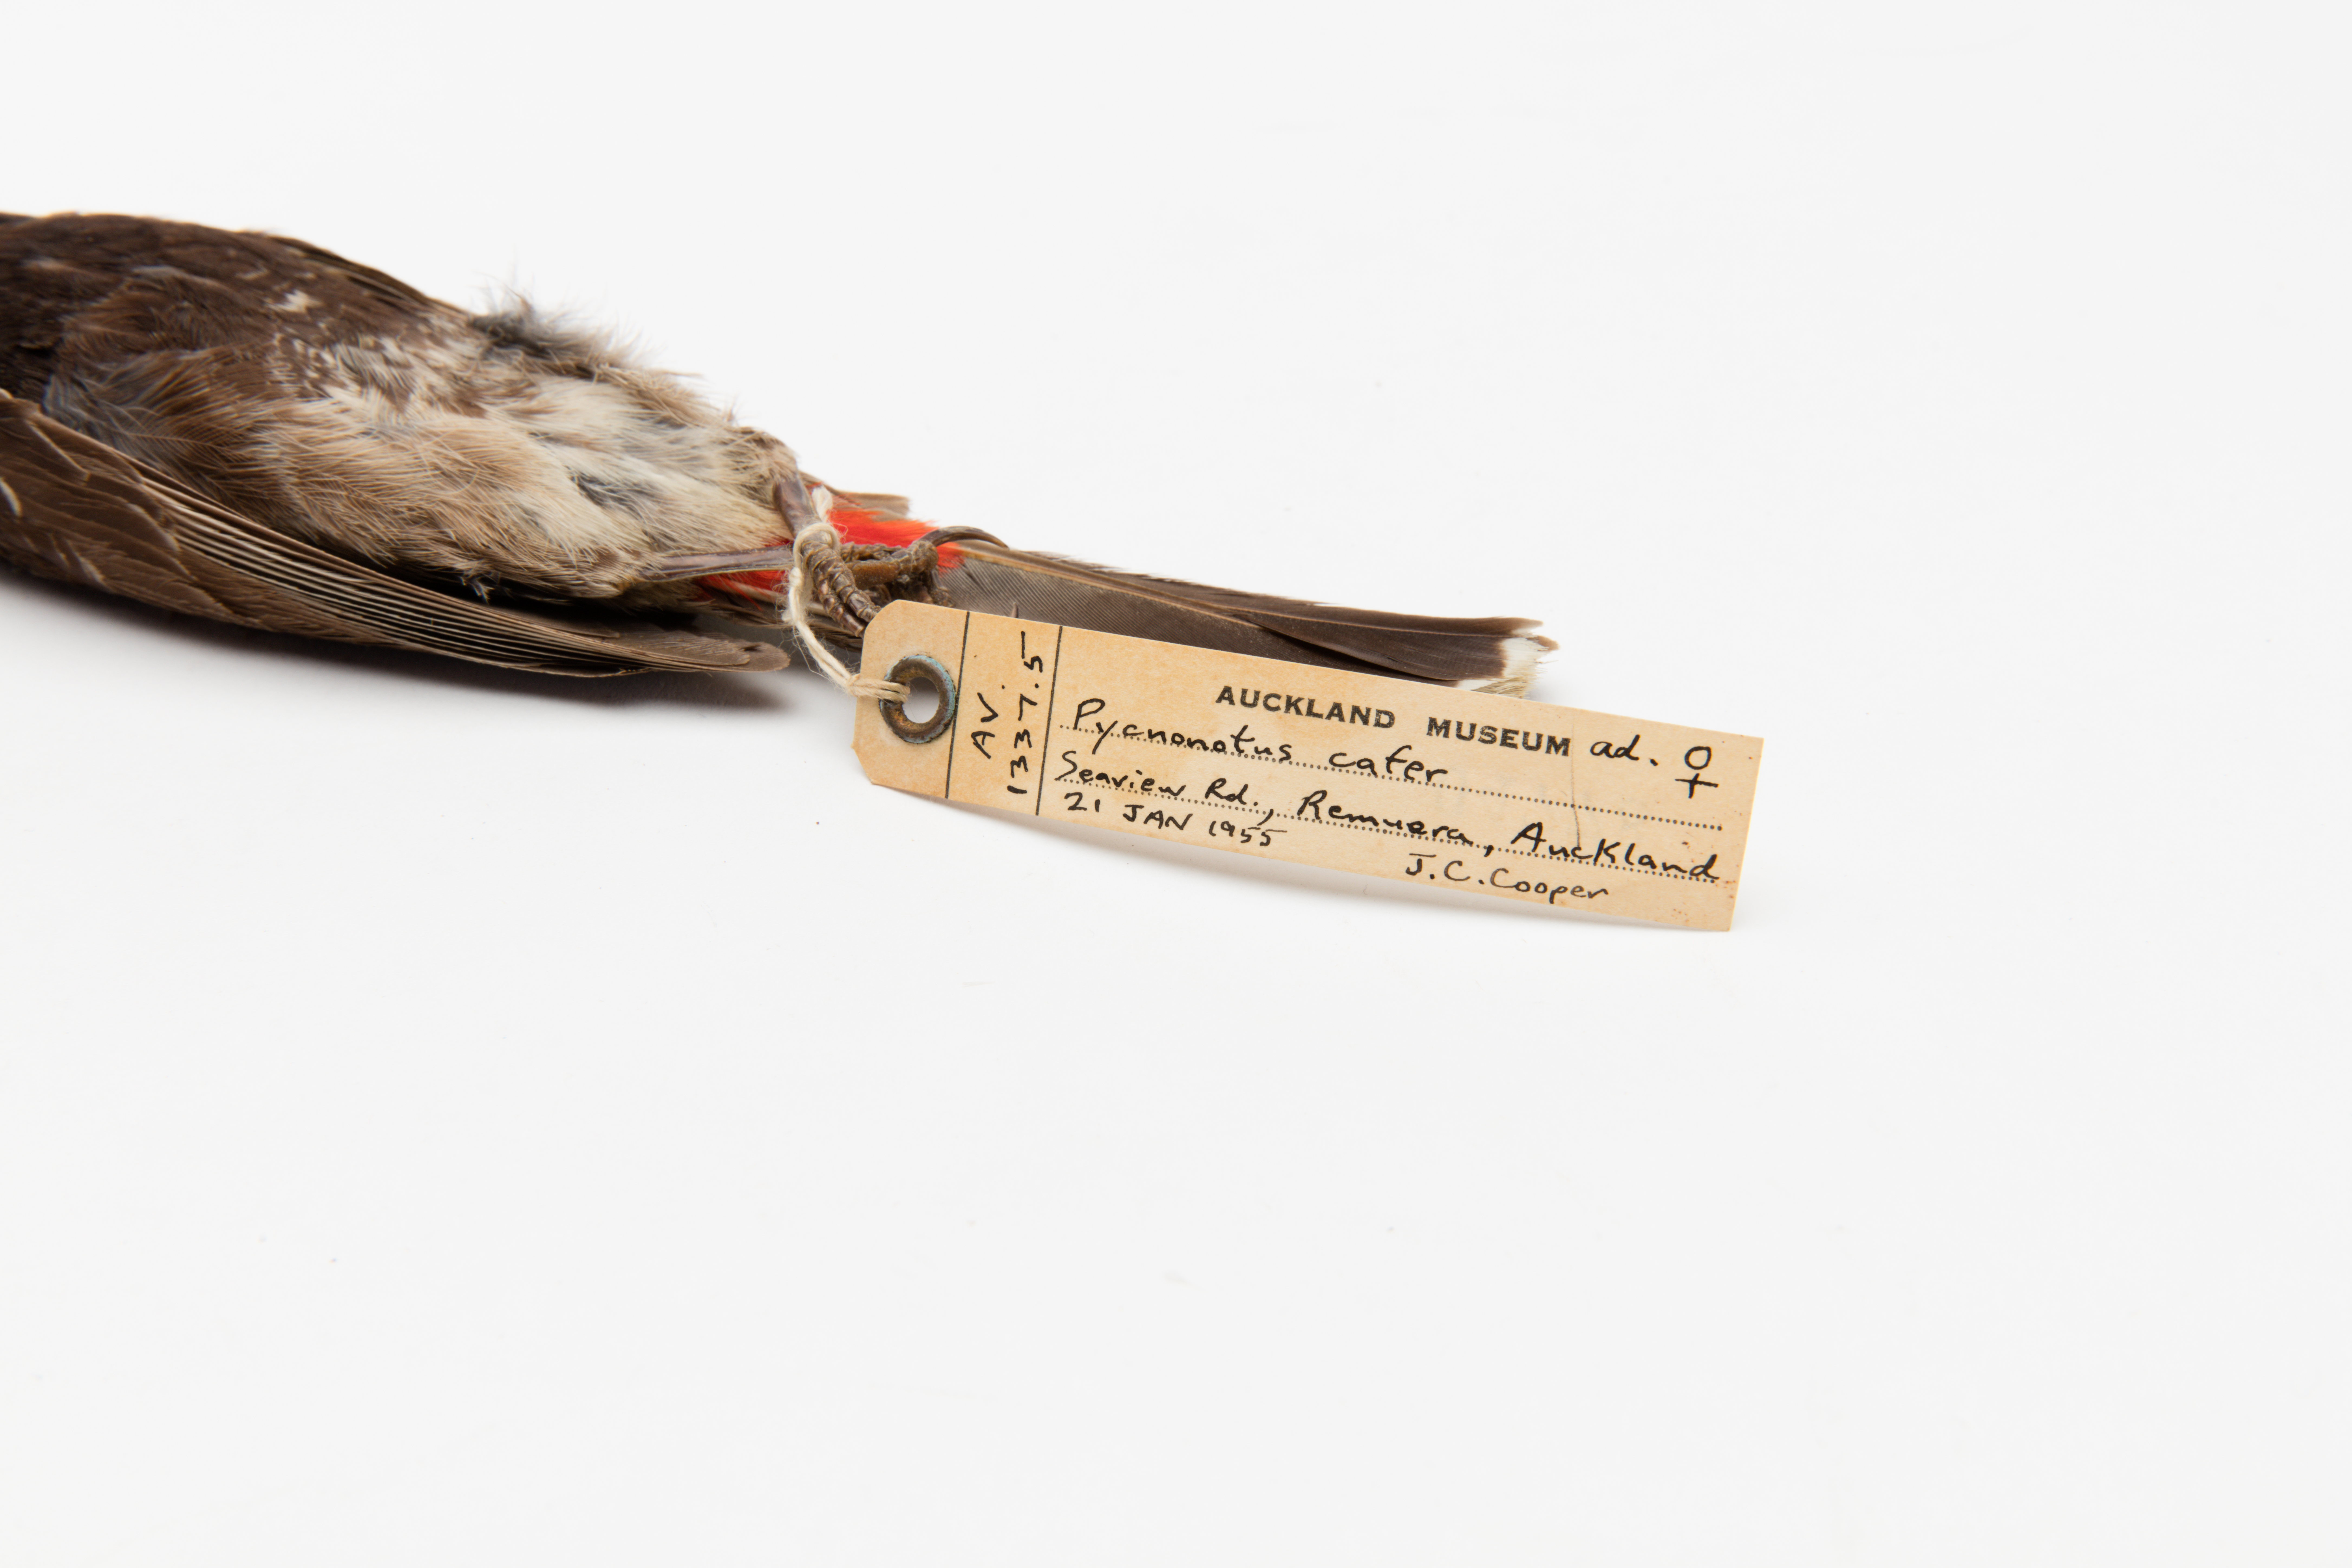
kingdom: Animalia
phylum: Chordata
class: Aves
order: Passeriformes
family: Pycnonotidae
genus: Pycnonotus
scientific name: Pycnonotus cafer
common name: Red-vented bulbul
